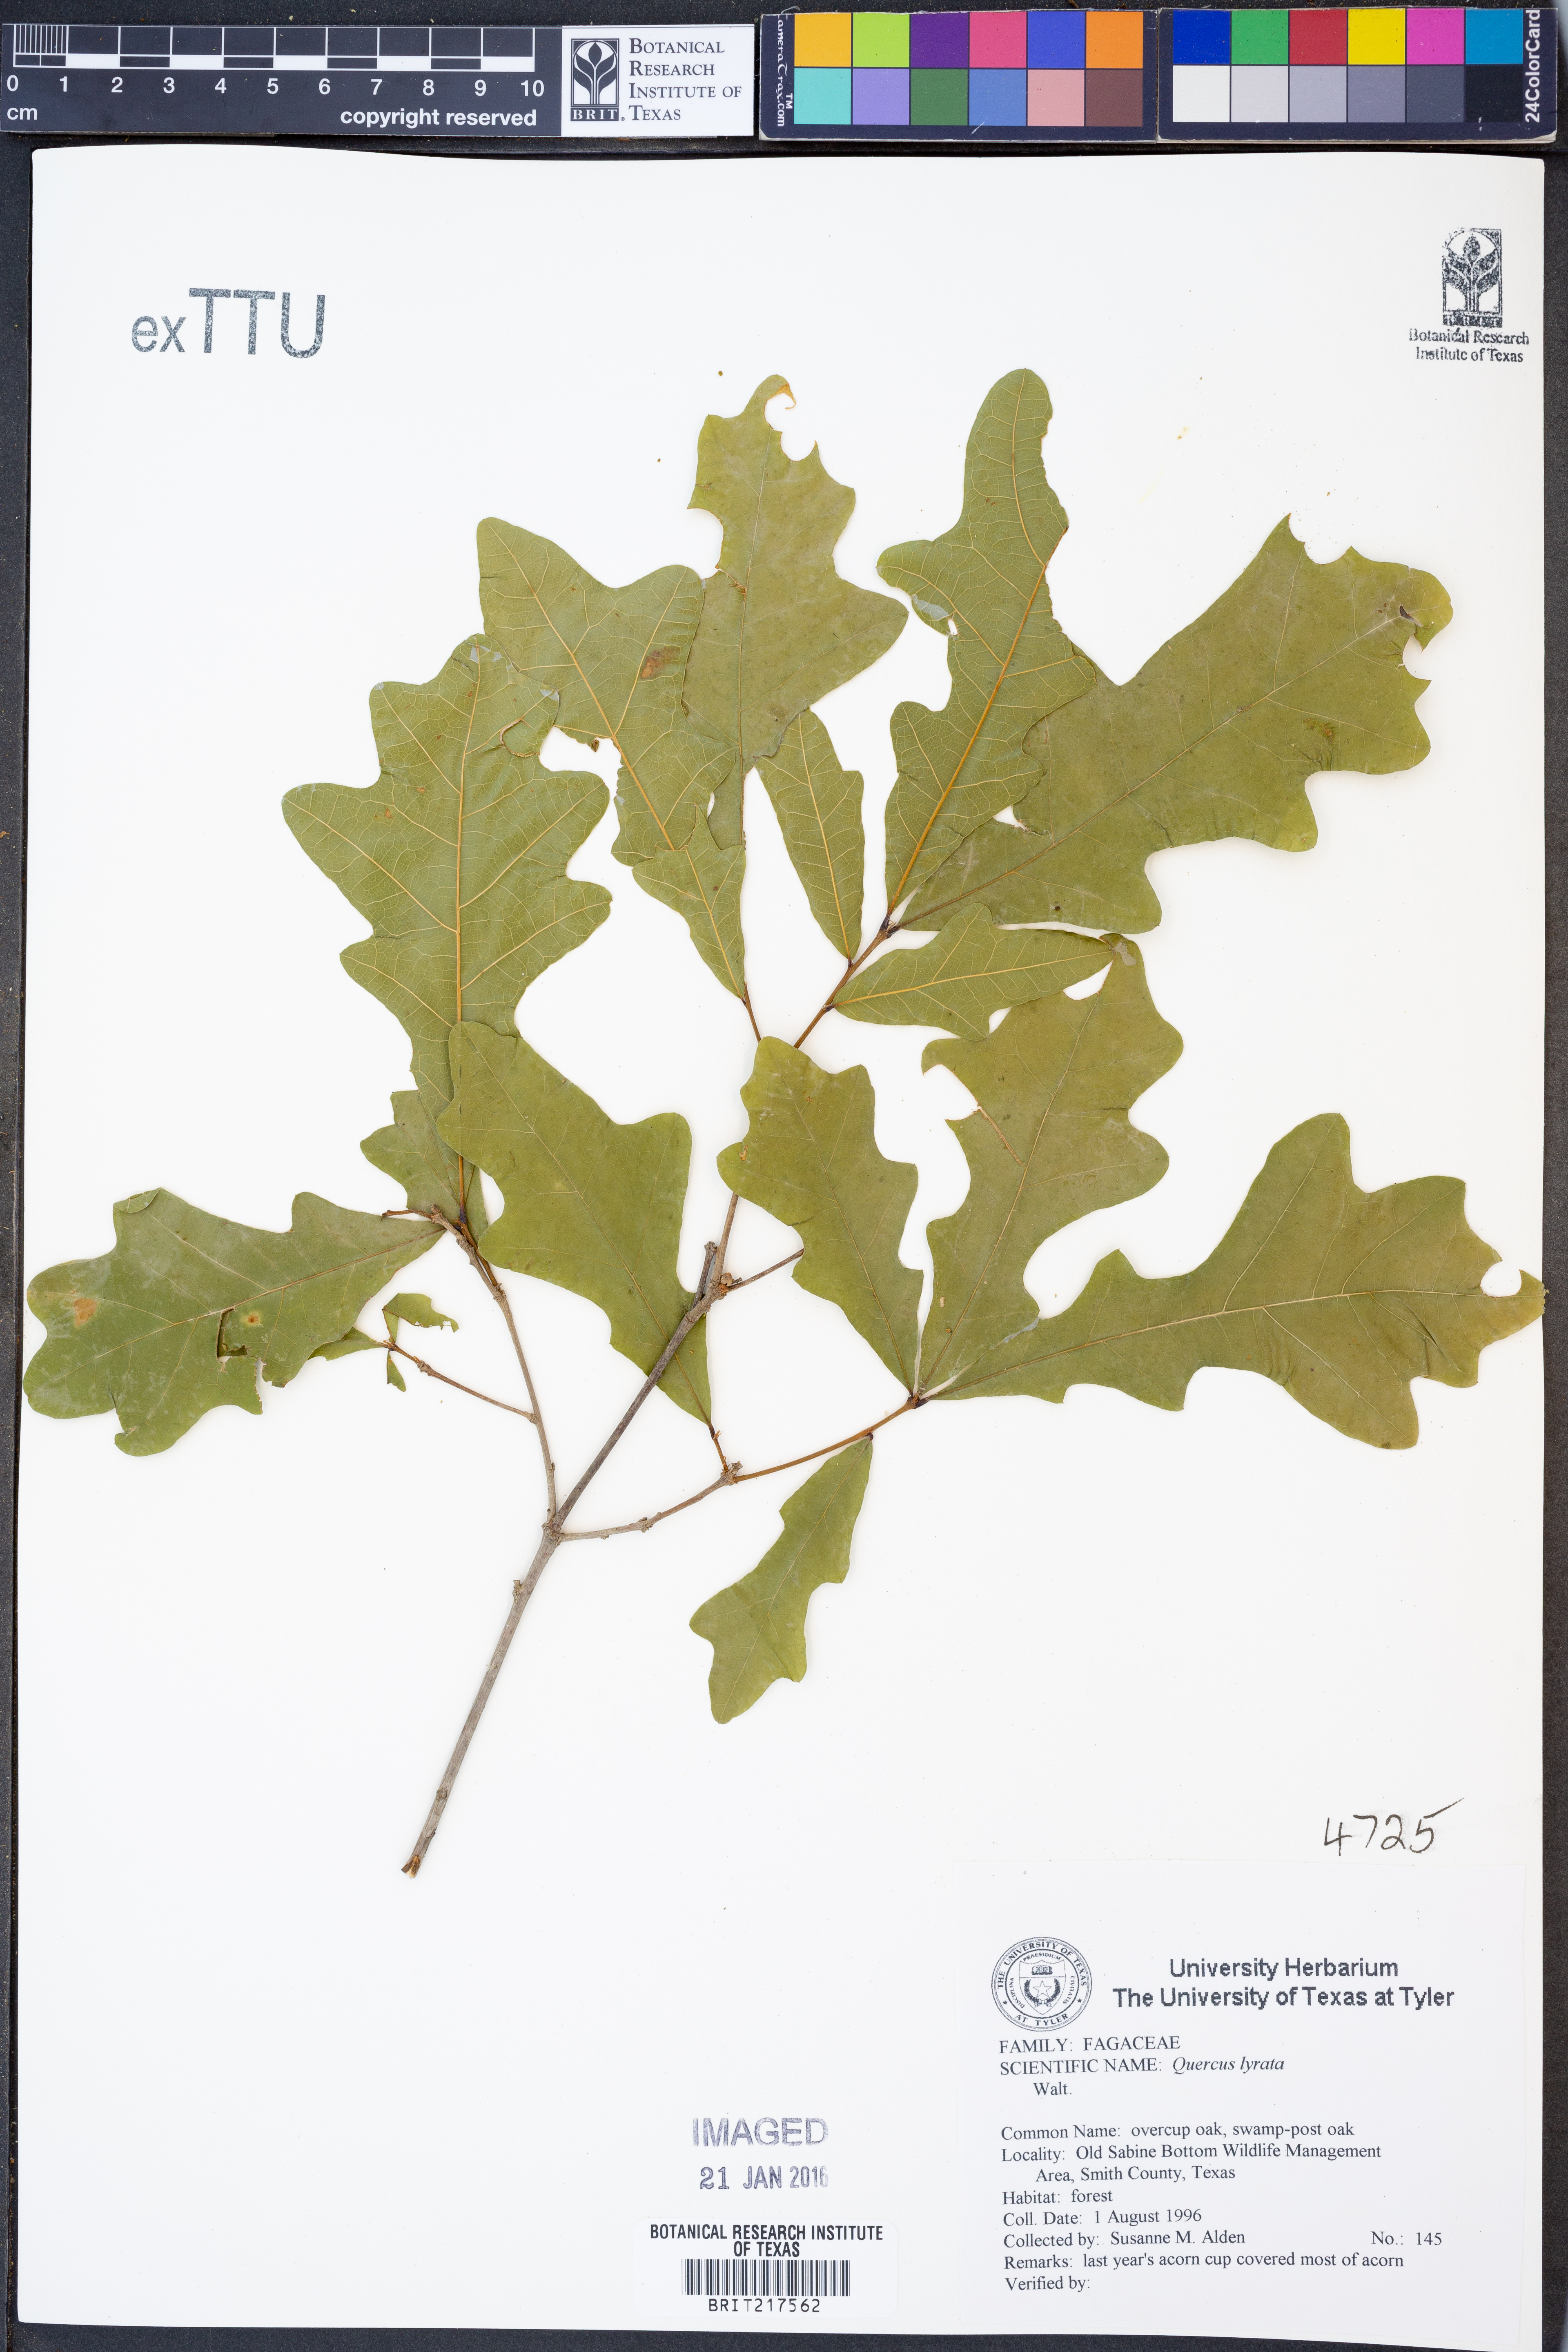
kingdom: Plantae
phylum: Tracheophyta
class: Magnoliopsida
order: Fagales
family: Fagaceae
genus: Quercus
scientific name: Quercus lyrata
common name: Overcup oak
